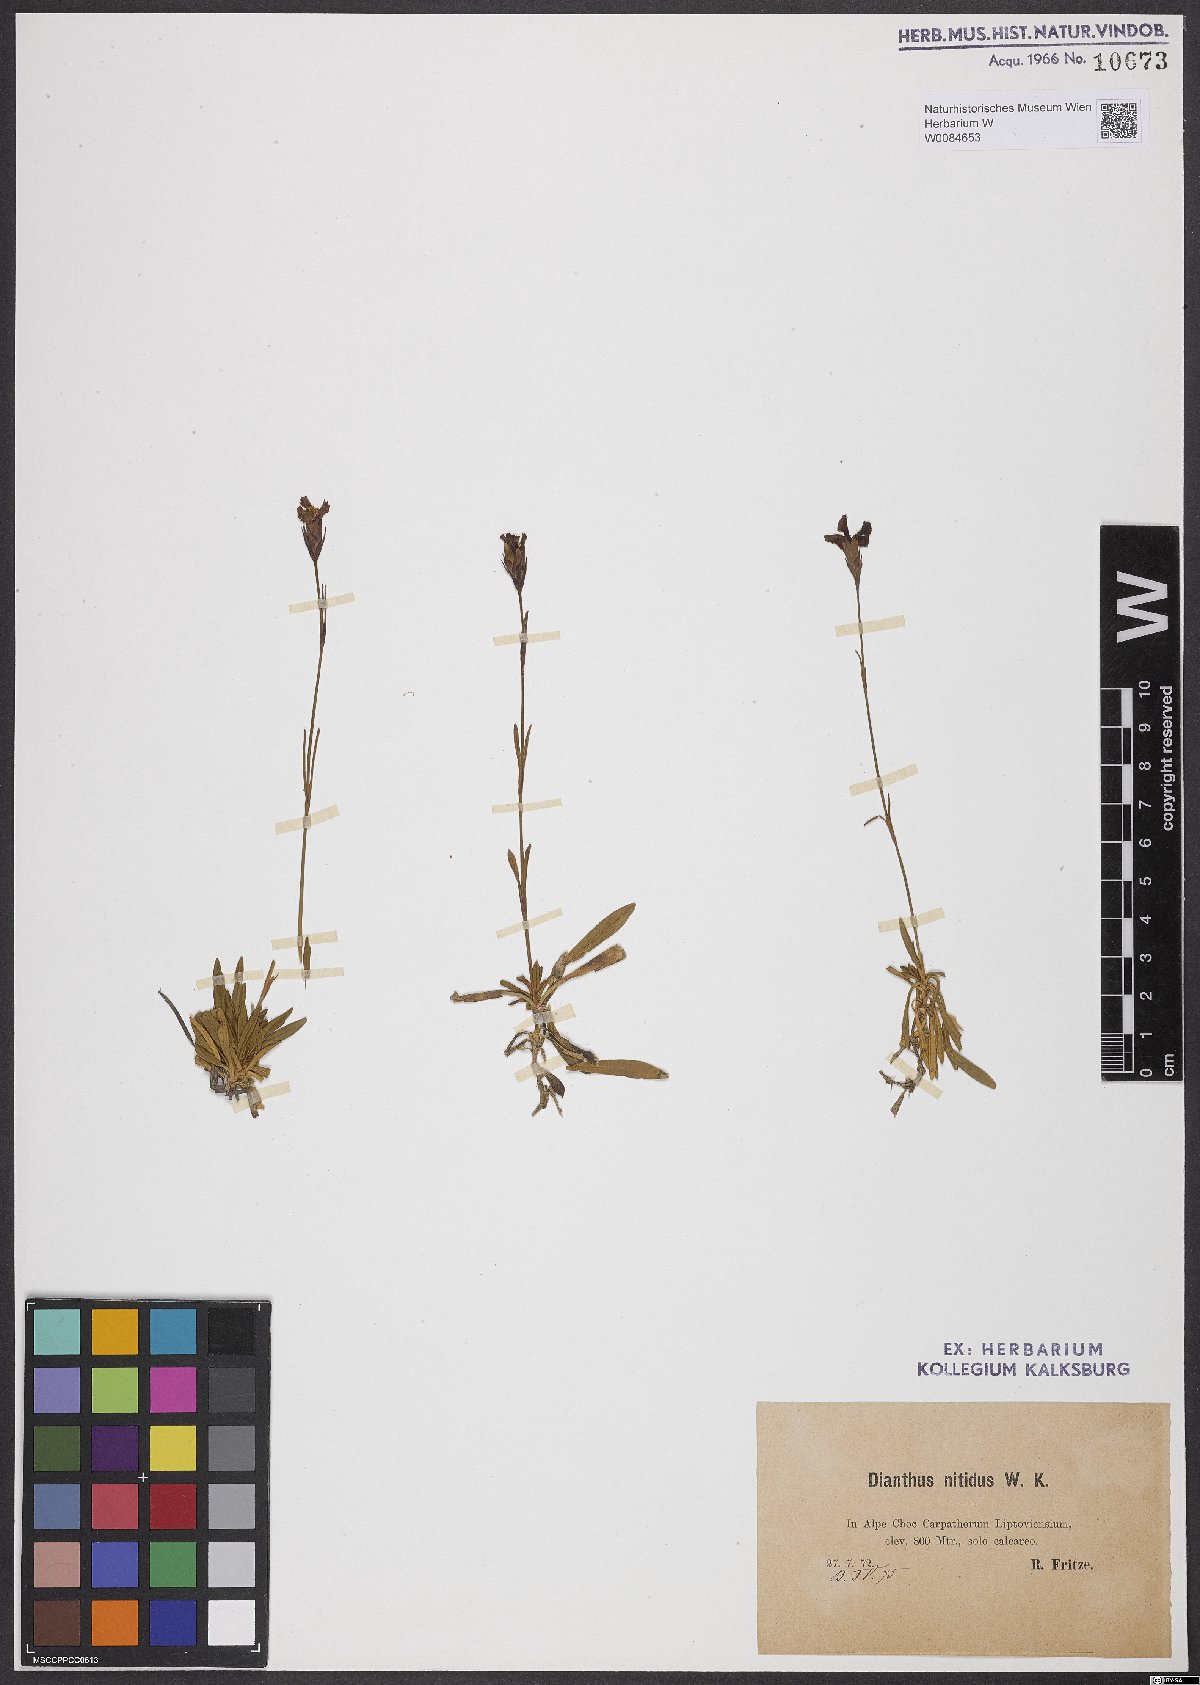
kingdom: Plantae
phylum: Tracheophyta
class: Magnoliopsida
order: Caryophyllales
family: Caryophyllaceae
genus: Dianthus
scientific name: Dianthus nitidus
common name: Carpathian glossy pink
